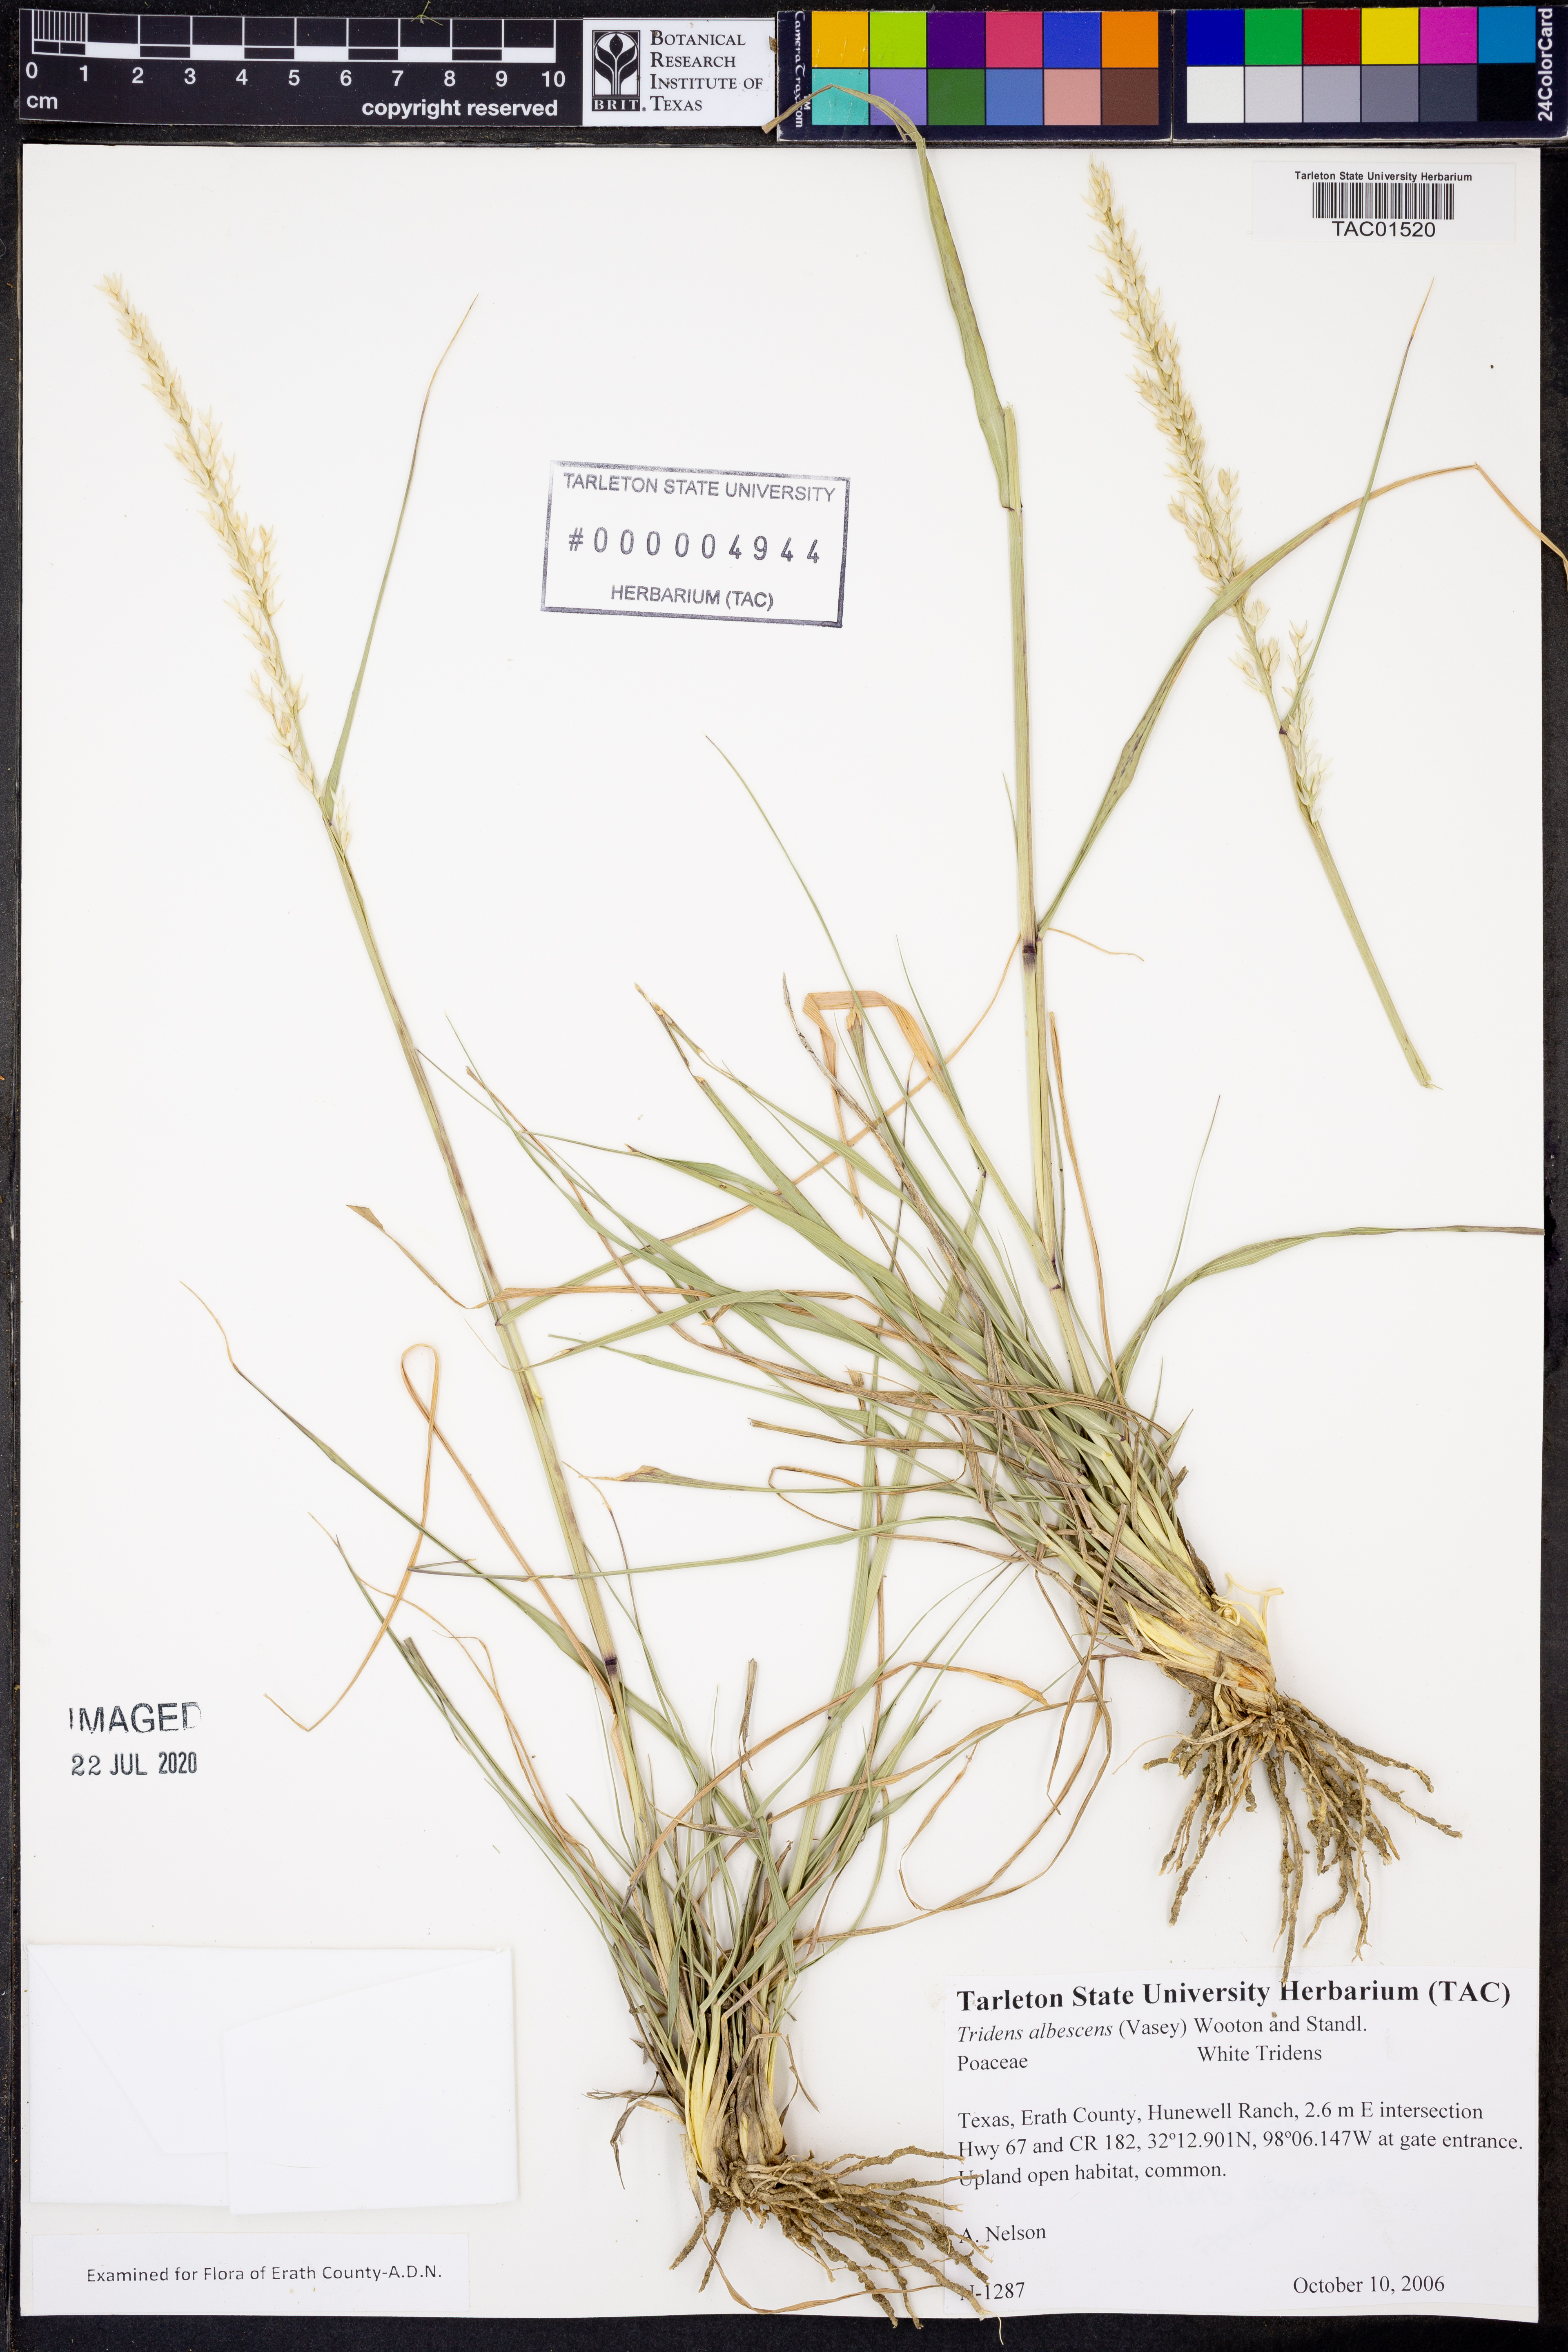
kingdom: Plantae
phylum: Tracheophyta
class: Liliopsida
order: Poales
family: Poaceae
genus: Tridens
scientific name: Tridens albescens
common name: White tridens
